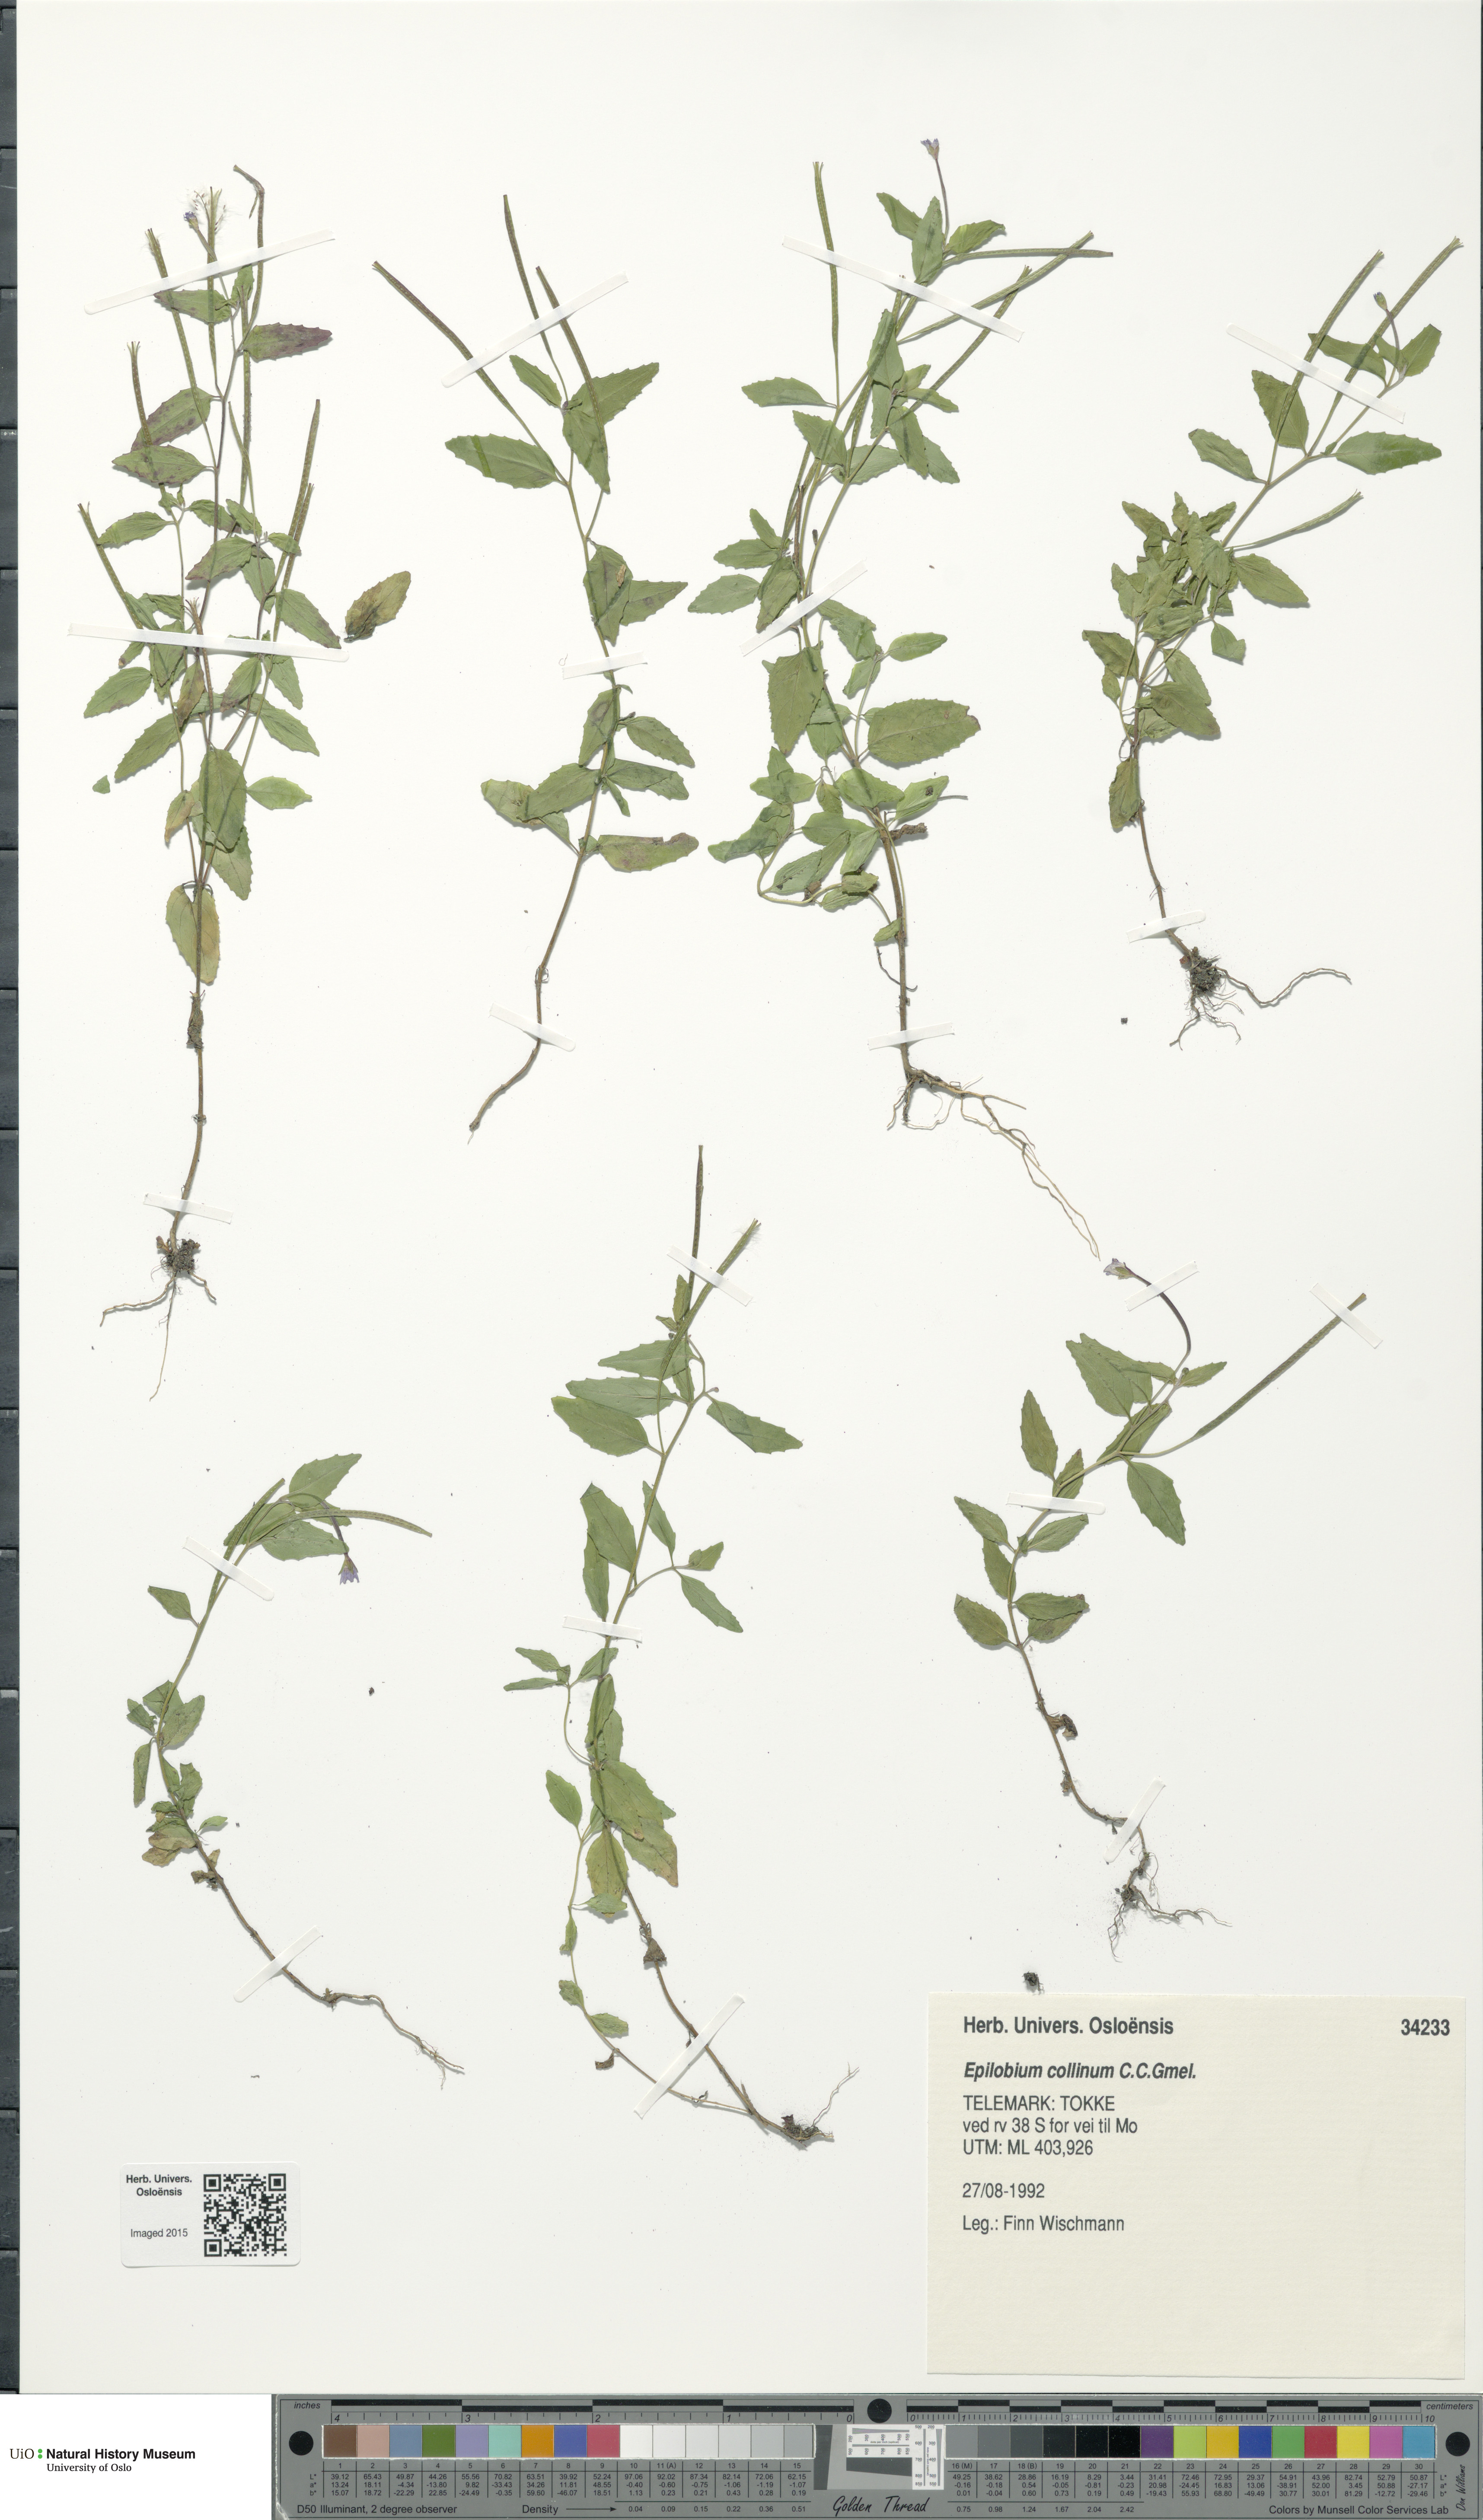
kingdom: Plantae
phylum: Tracheophyta
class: Magnoliopsida
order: Myrtales
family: Onagraceae
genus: Epilobium
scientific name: Epilobium collinum
